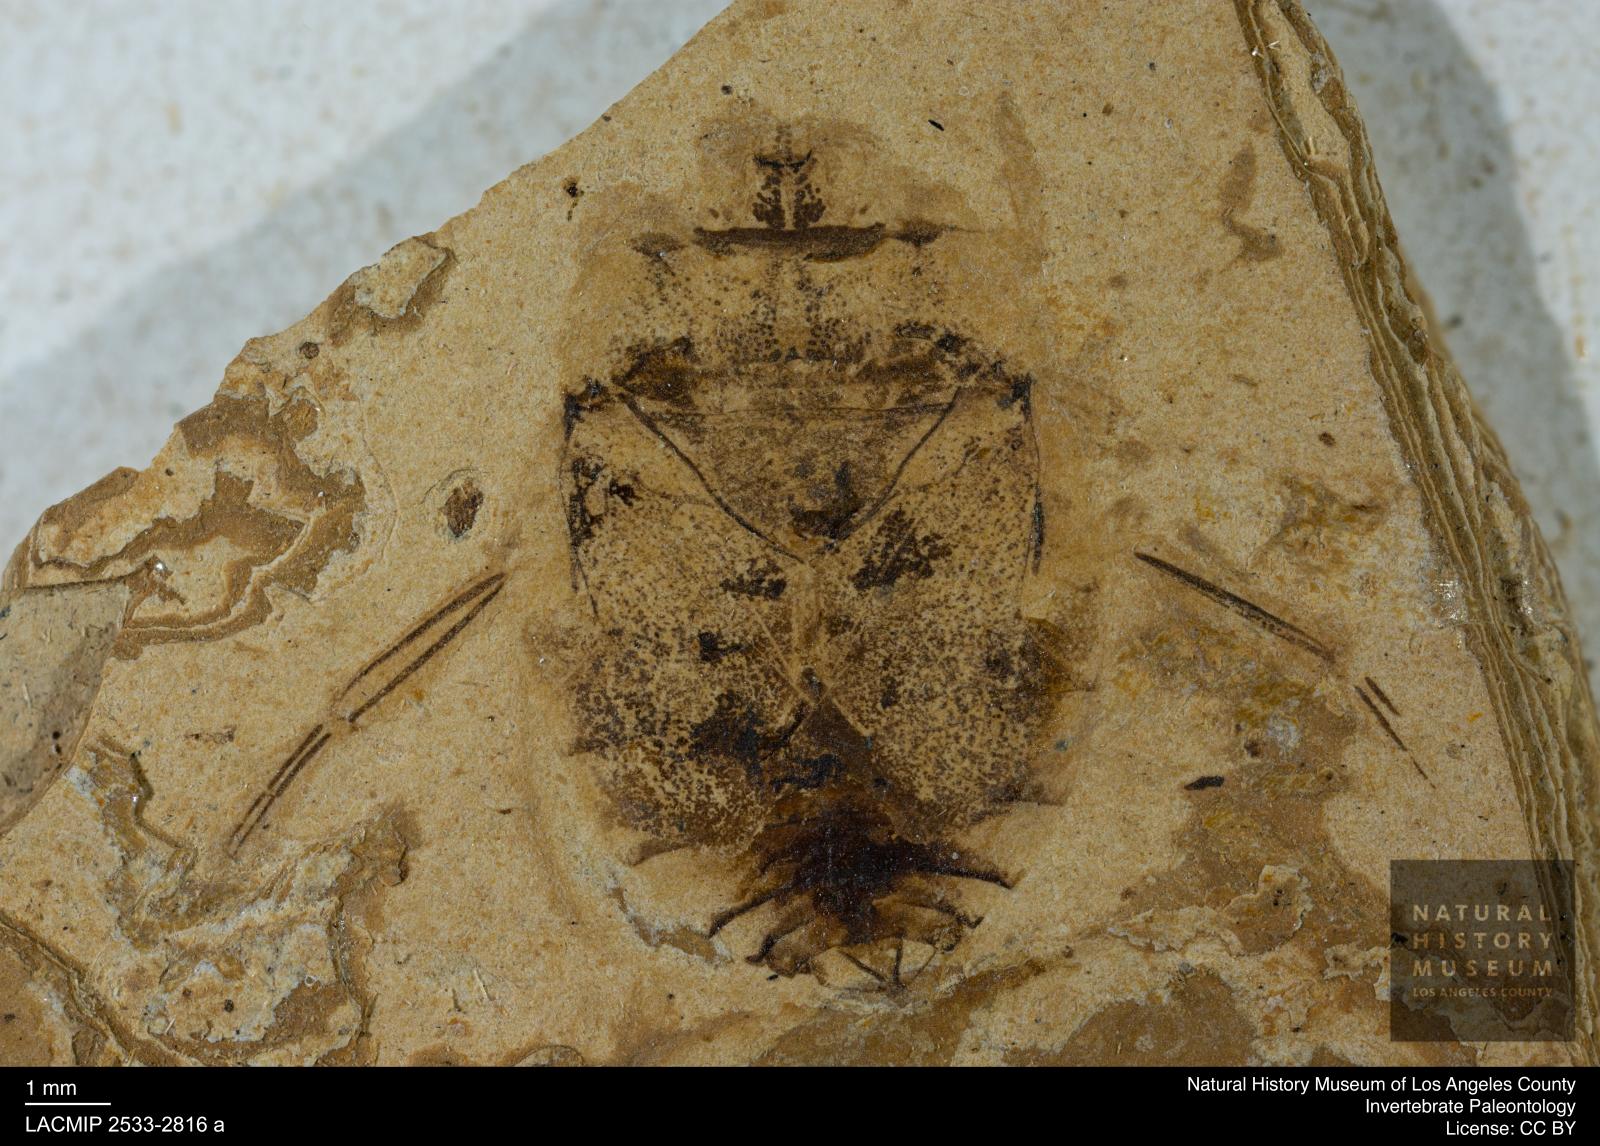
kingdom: Animalia
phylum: Arthropoda
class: Insecta
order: Hemiptera
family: Naucoridae
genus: Naucoris
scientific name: Naucoris rottensis
